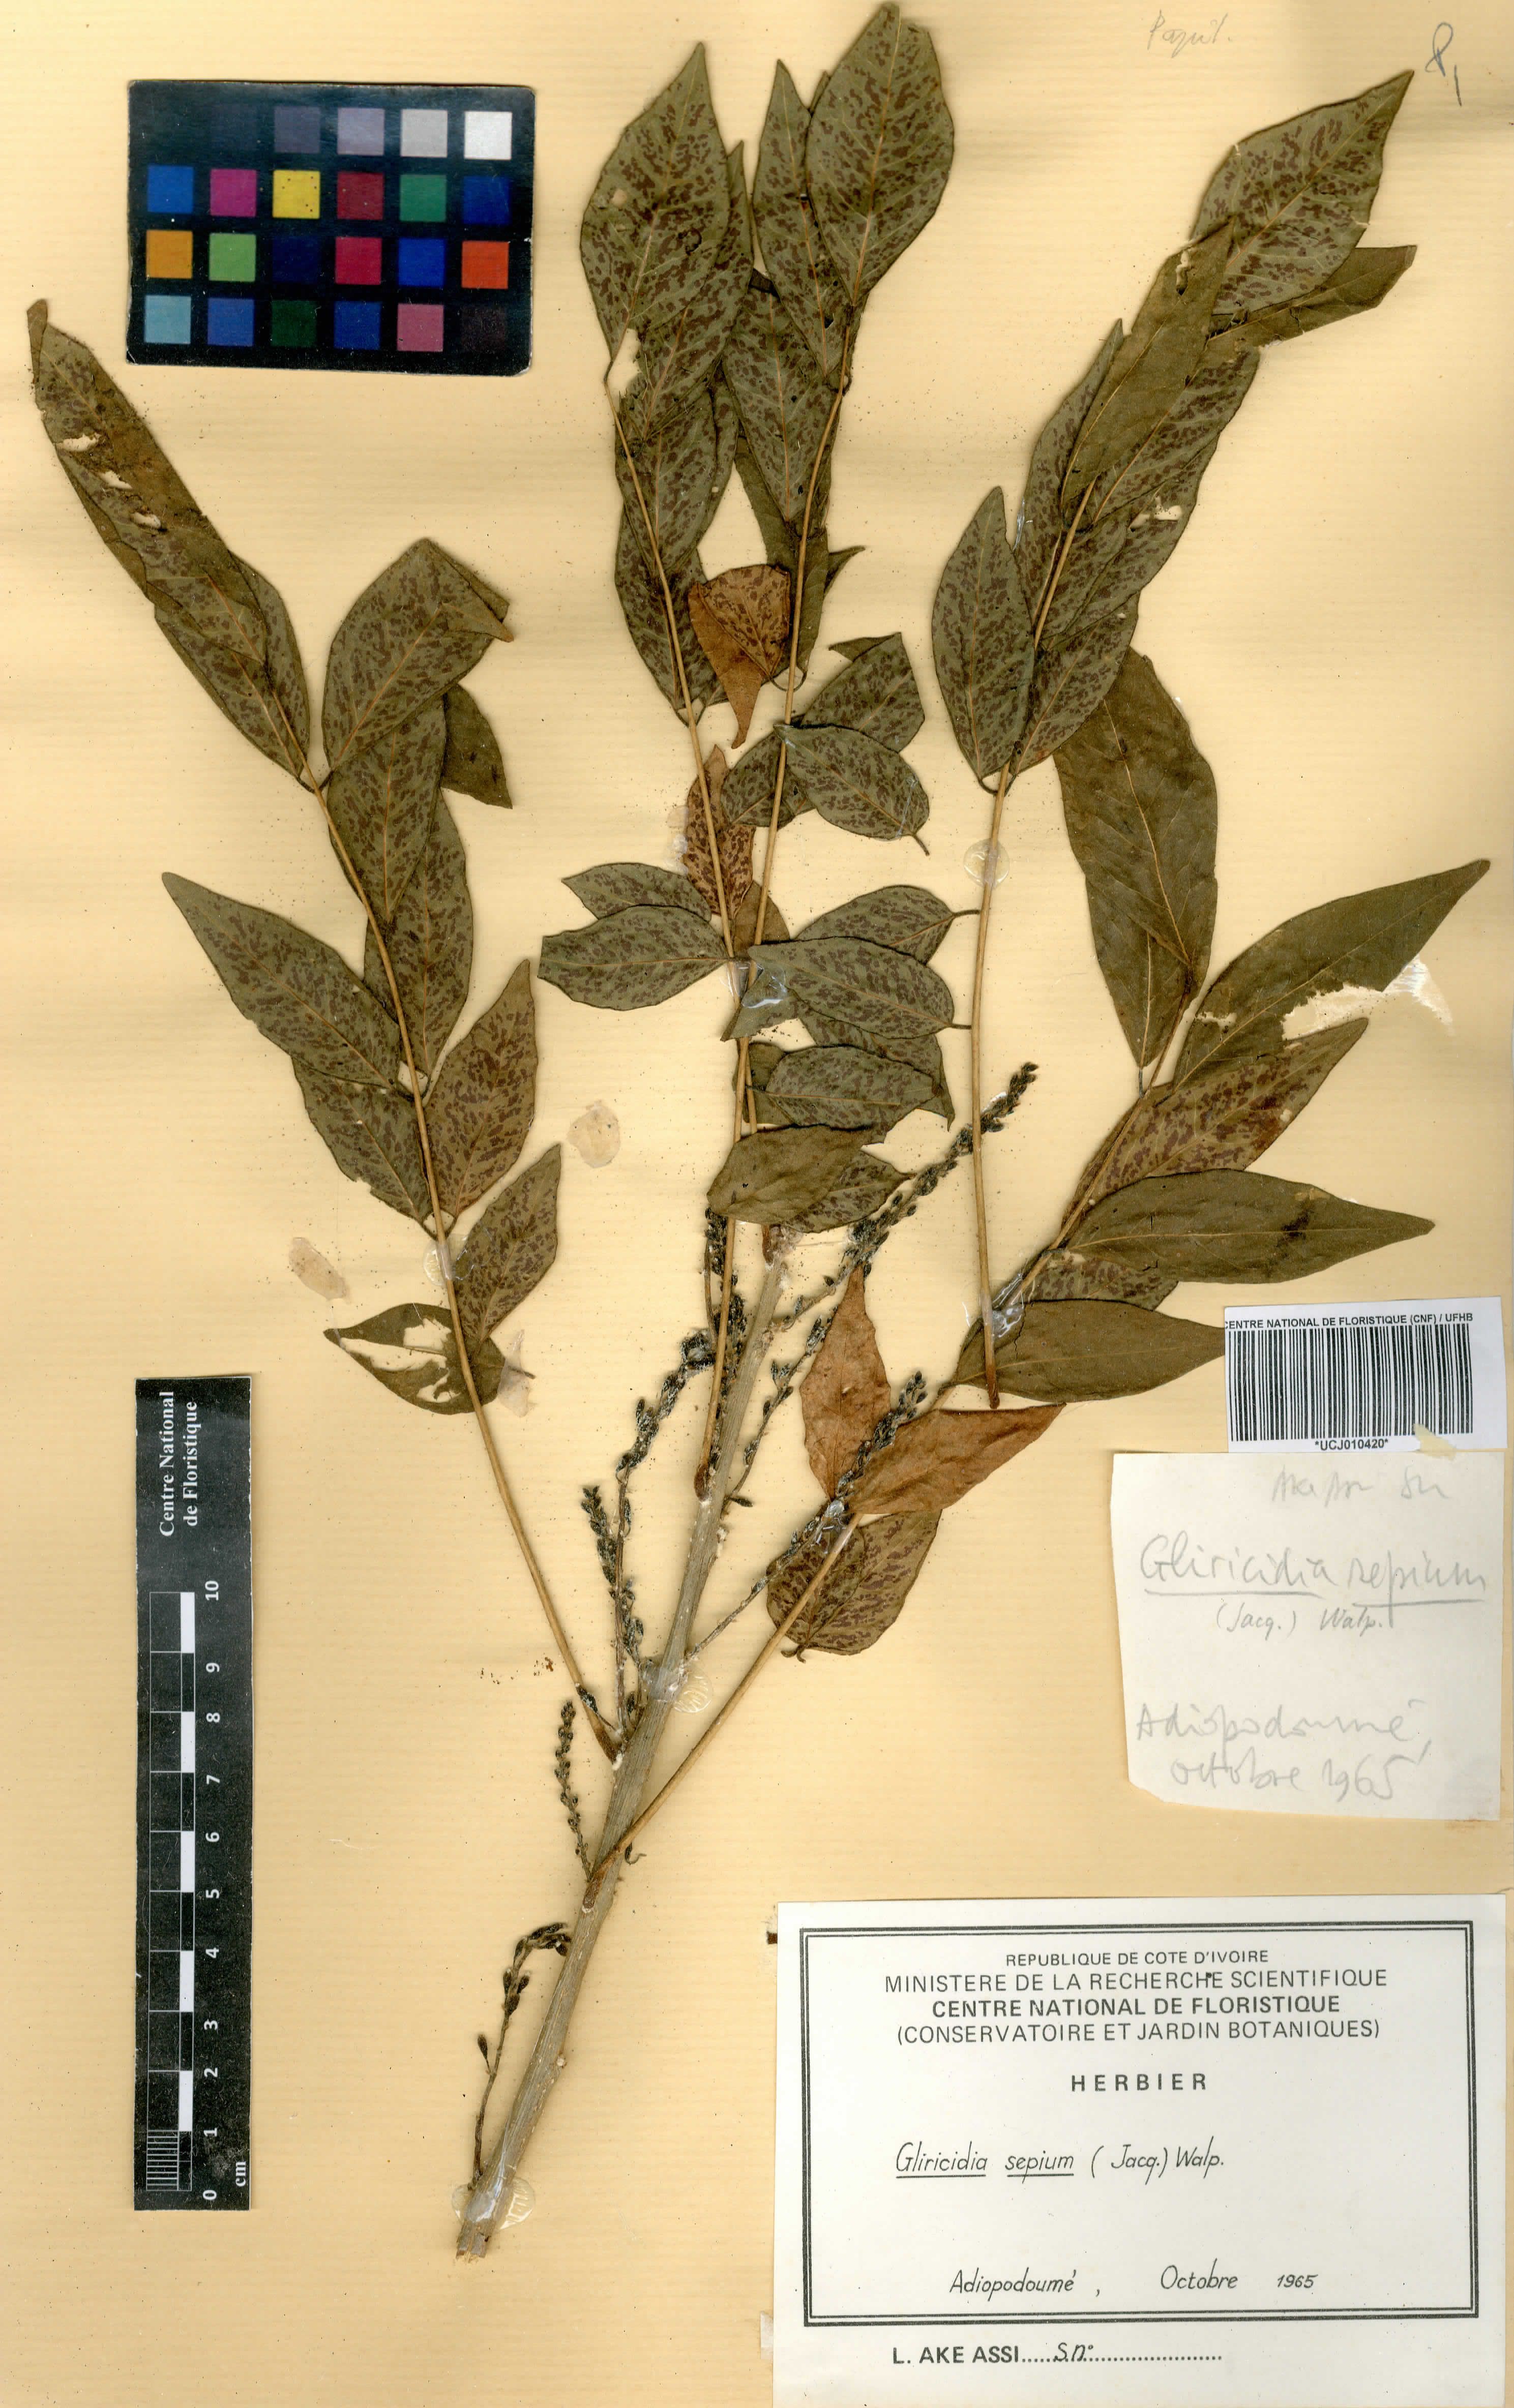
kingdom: Plantae
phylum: Tracheophyta
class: Magnoliopsida
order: Fabales
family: Fabaceae
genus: Gliricidia
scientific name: Gliricidia sepium
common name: Quickstick
